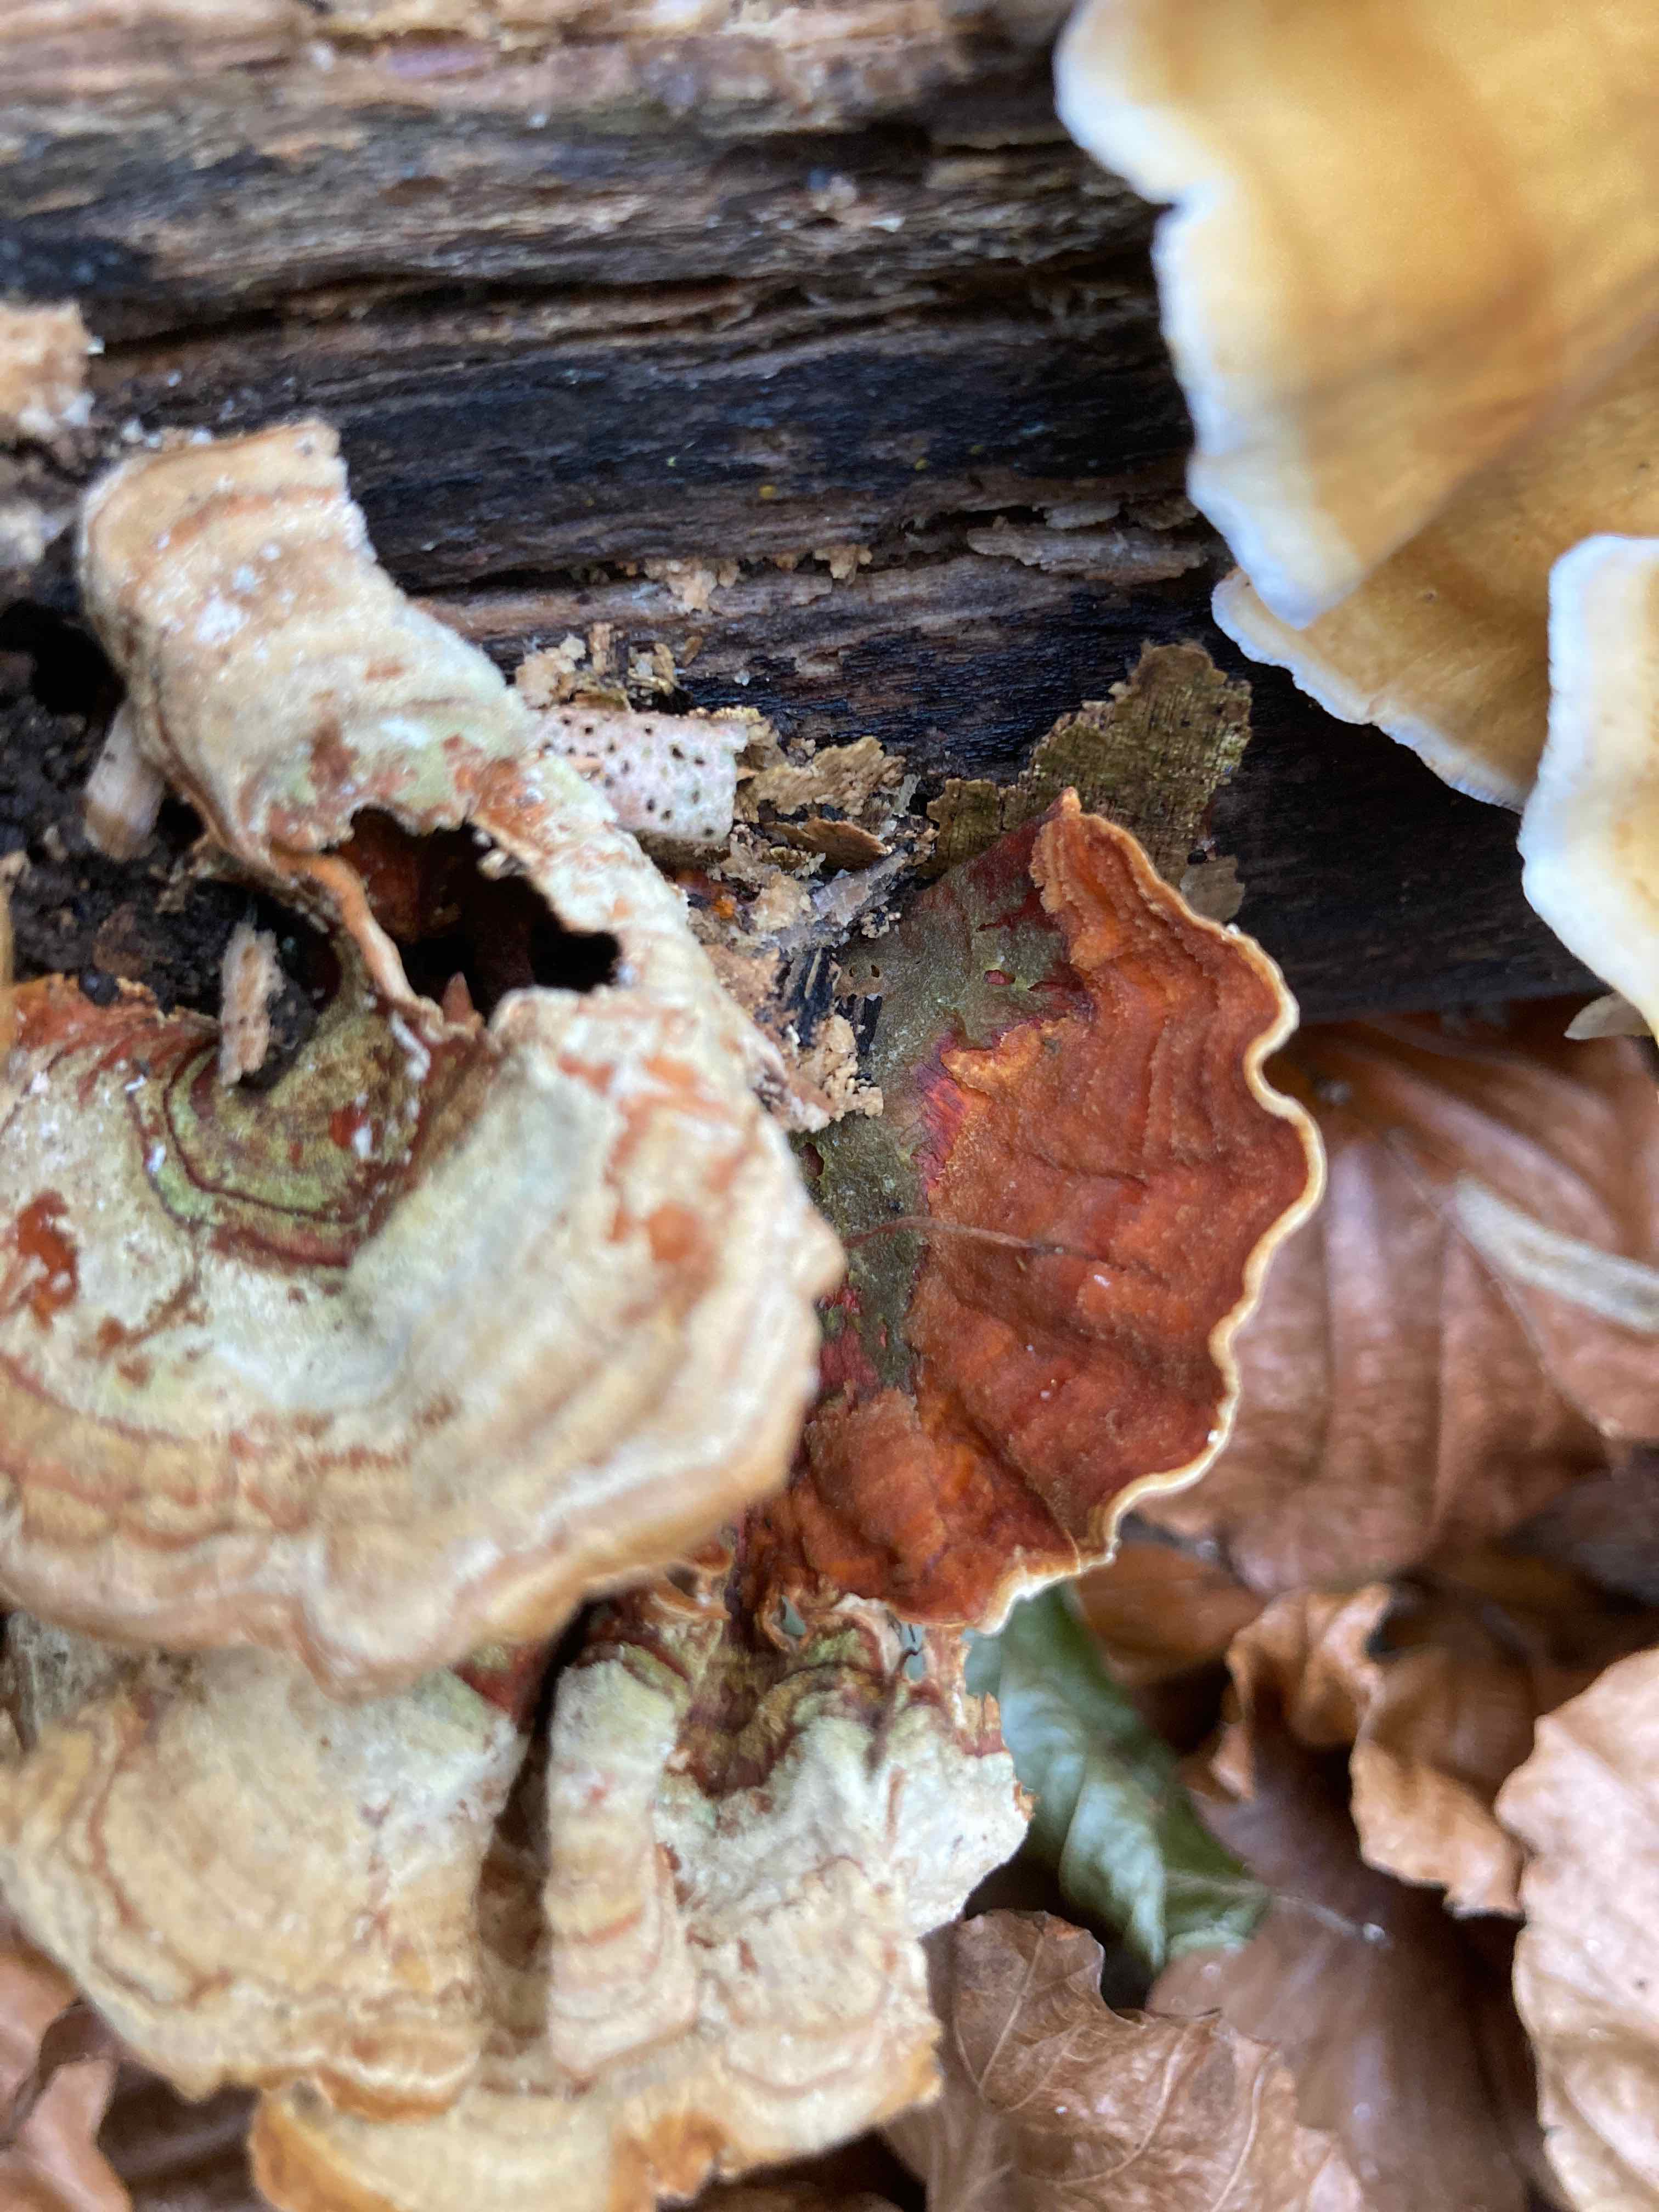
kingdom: Fungi
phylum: Basidiomycota
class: Agaricomycetes
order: Russulales
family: Stereaceae
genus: Stereum
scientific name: Stereum subtomentosum
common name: smuk lædersvamp
